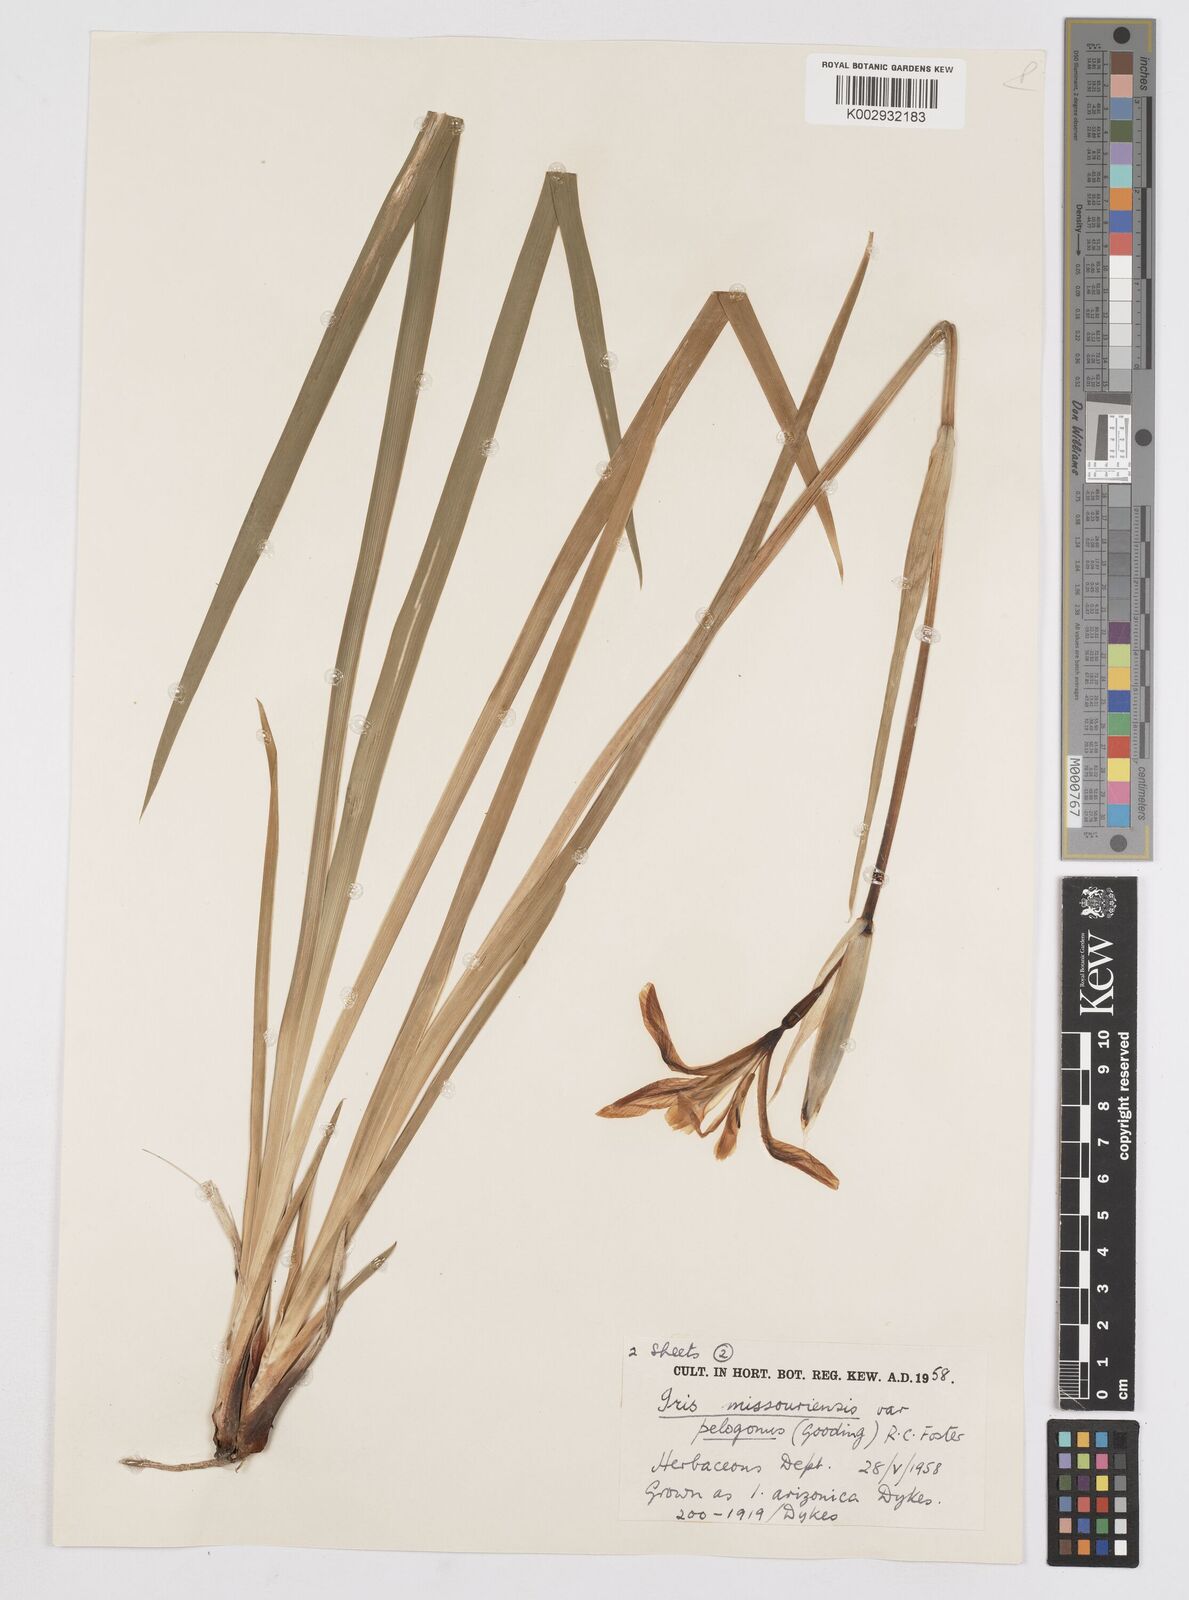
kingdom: Plantae
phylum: Tracheophyta
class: Liliopsida
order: Asparagales
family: Iridaceae
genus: Iris
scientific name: Iris missouriensis
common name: Rocky mountain iris
